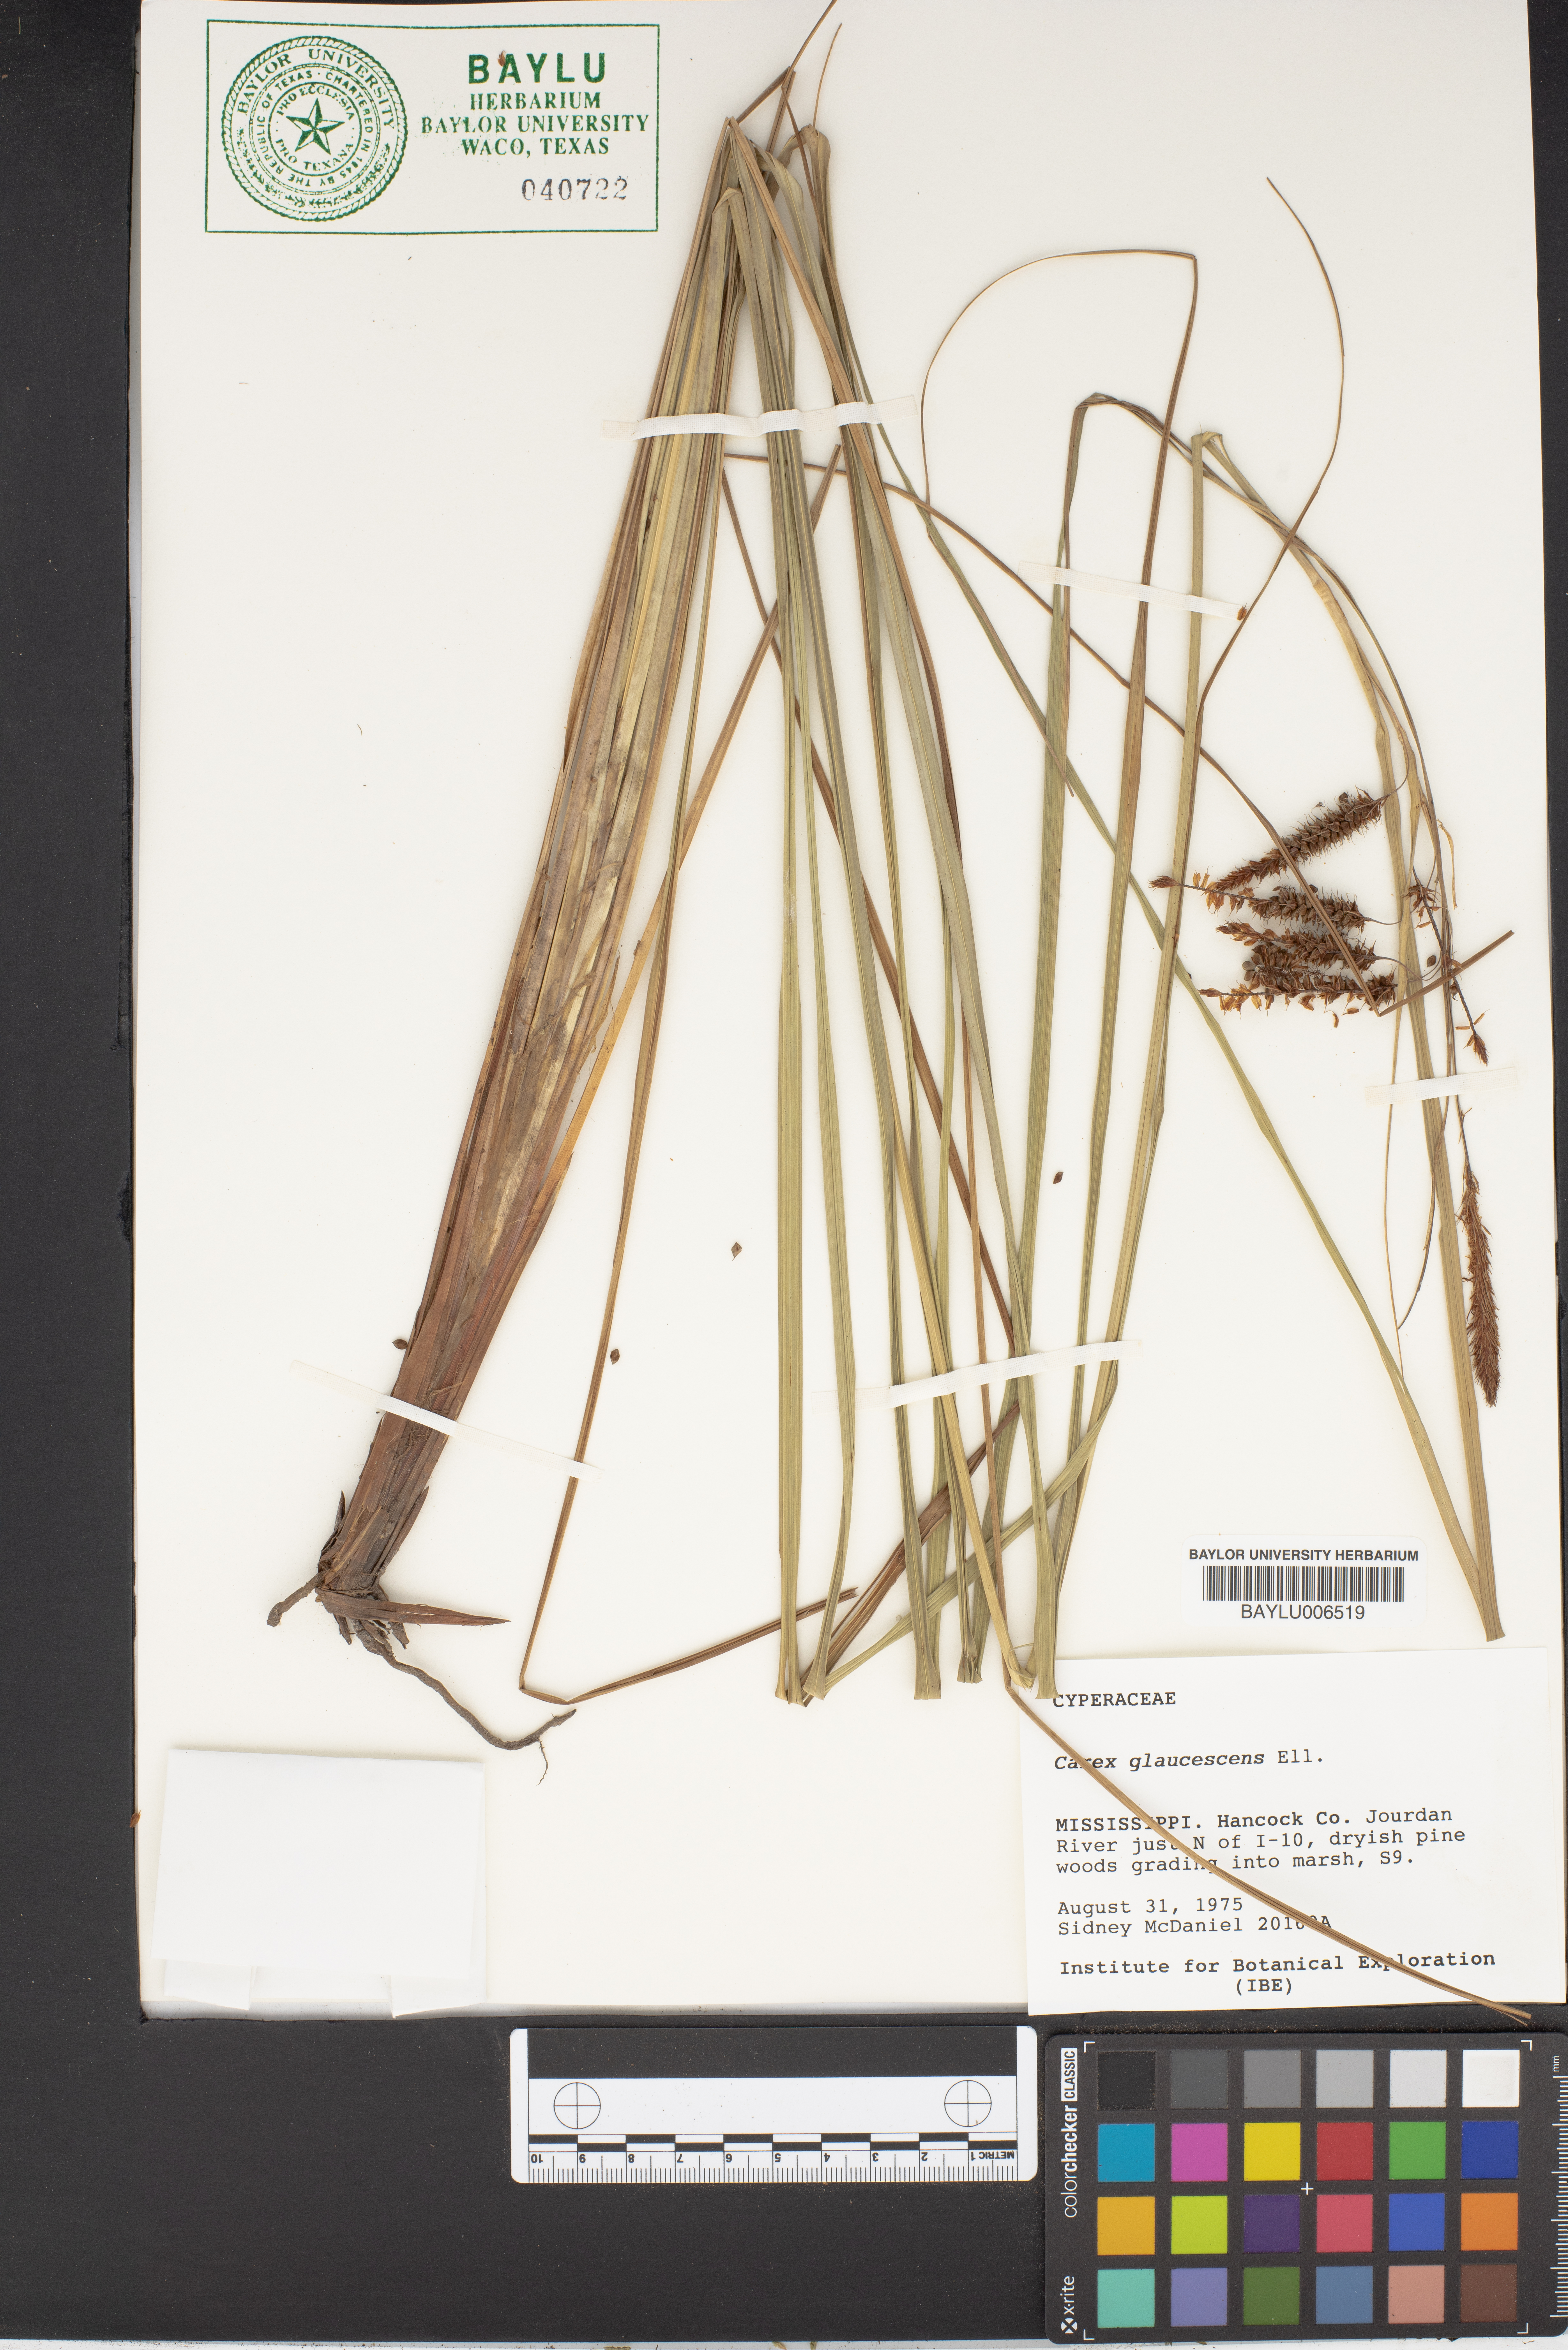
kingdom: Plantae
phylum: Tracheophyta
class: Liliopsida
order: Poales
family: Cyperaceae
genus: Carex
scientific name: Carex glaucescens
